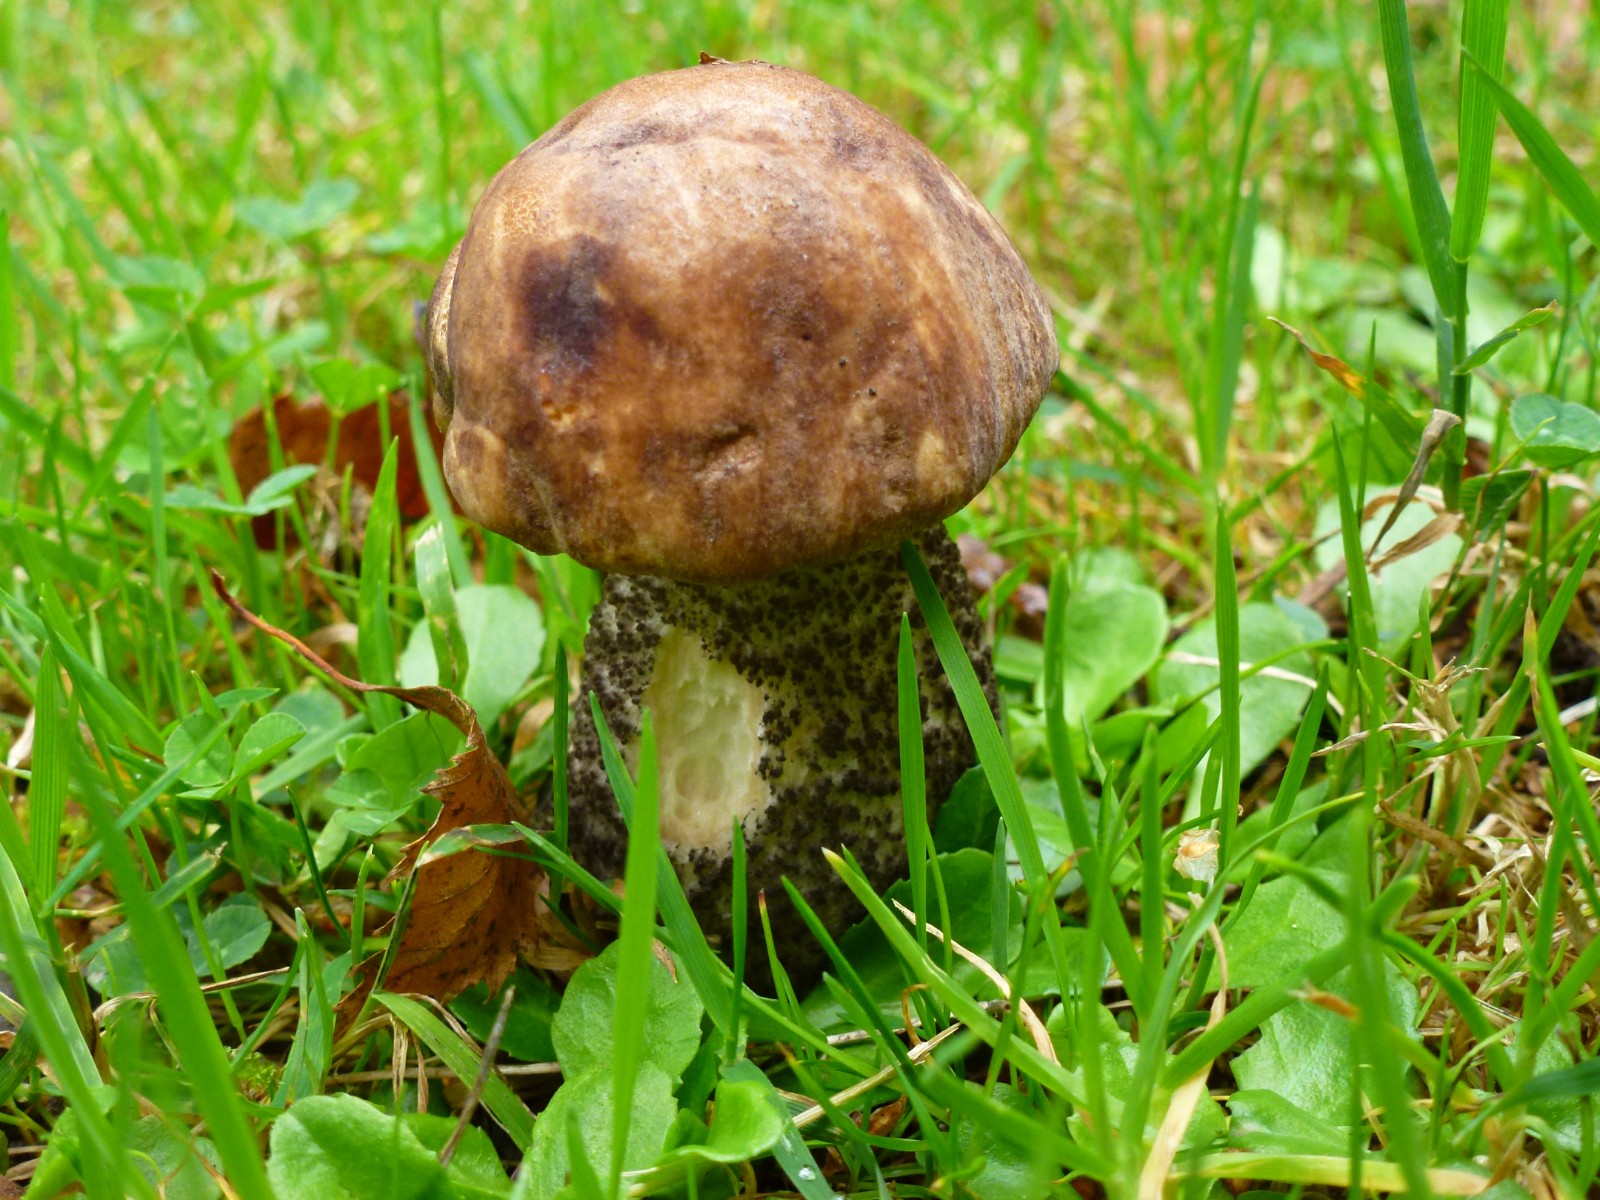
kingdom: Fungi
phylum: Basidiomycota
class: Agaricomycetes
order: Boletales
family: Boletaceae
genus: Leccinum
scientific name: Leccinum scabrum
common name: brun skælrørhat
